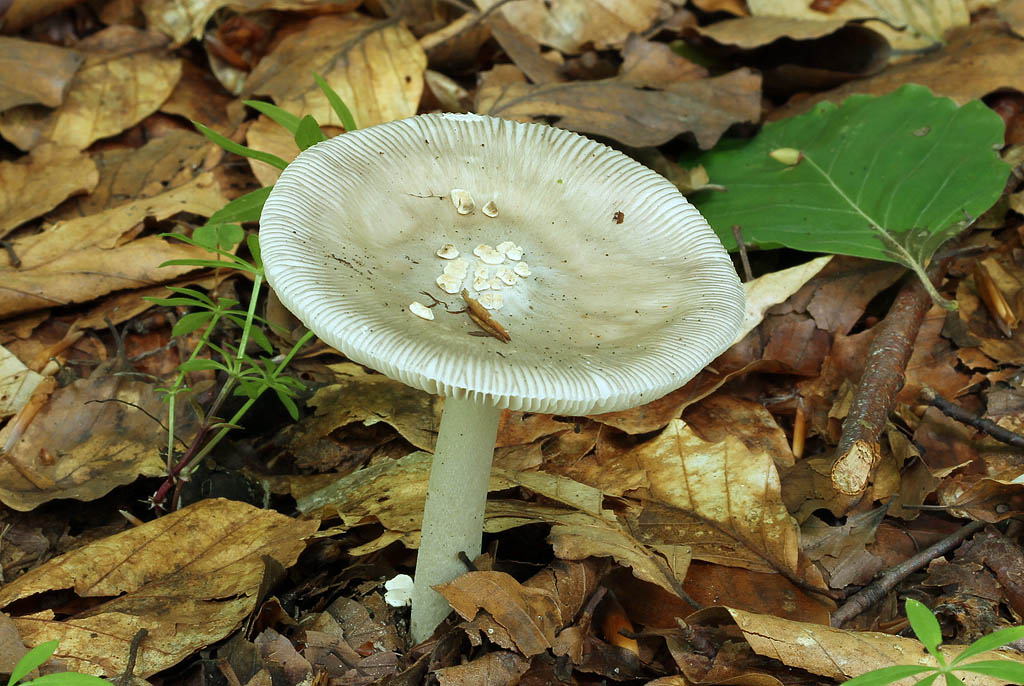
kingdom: Fungi
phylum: Basidiomycota
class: Agaricomycetes
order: Agaricales
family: Amanitaceae
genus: Amanita
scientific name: Amanita vaginata
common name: grå kam-fluesvamp
